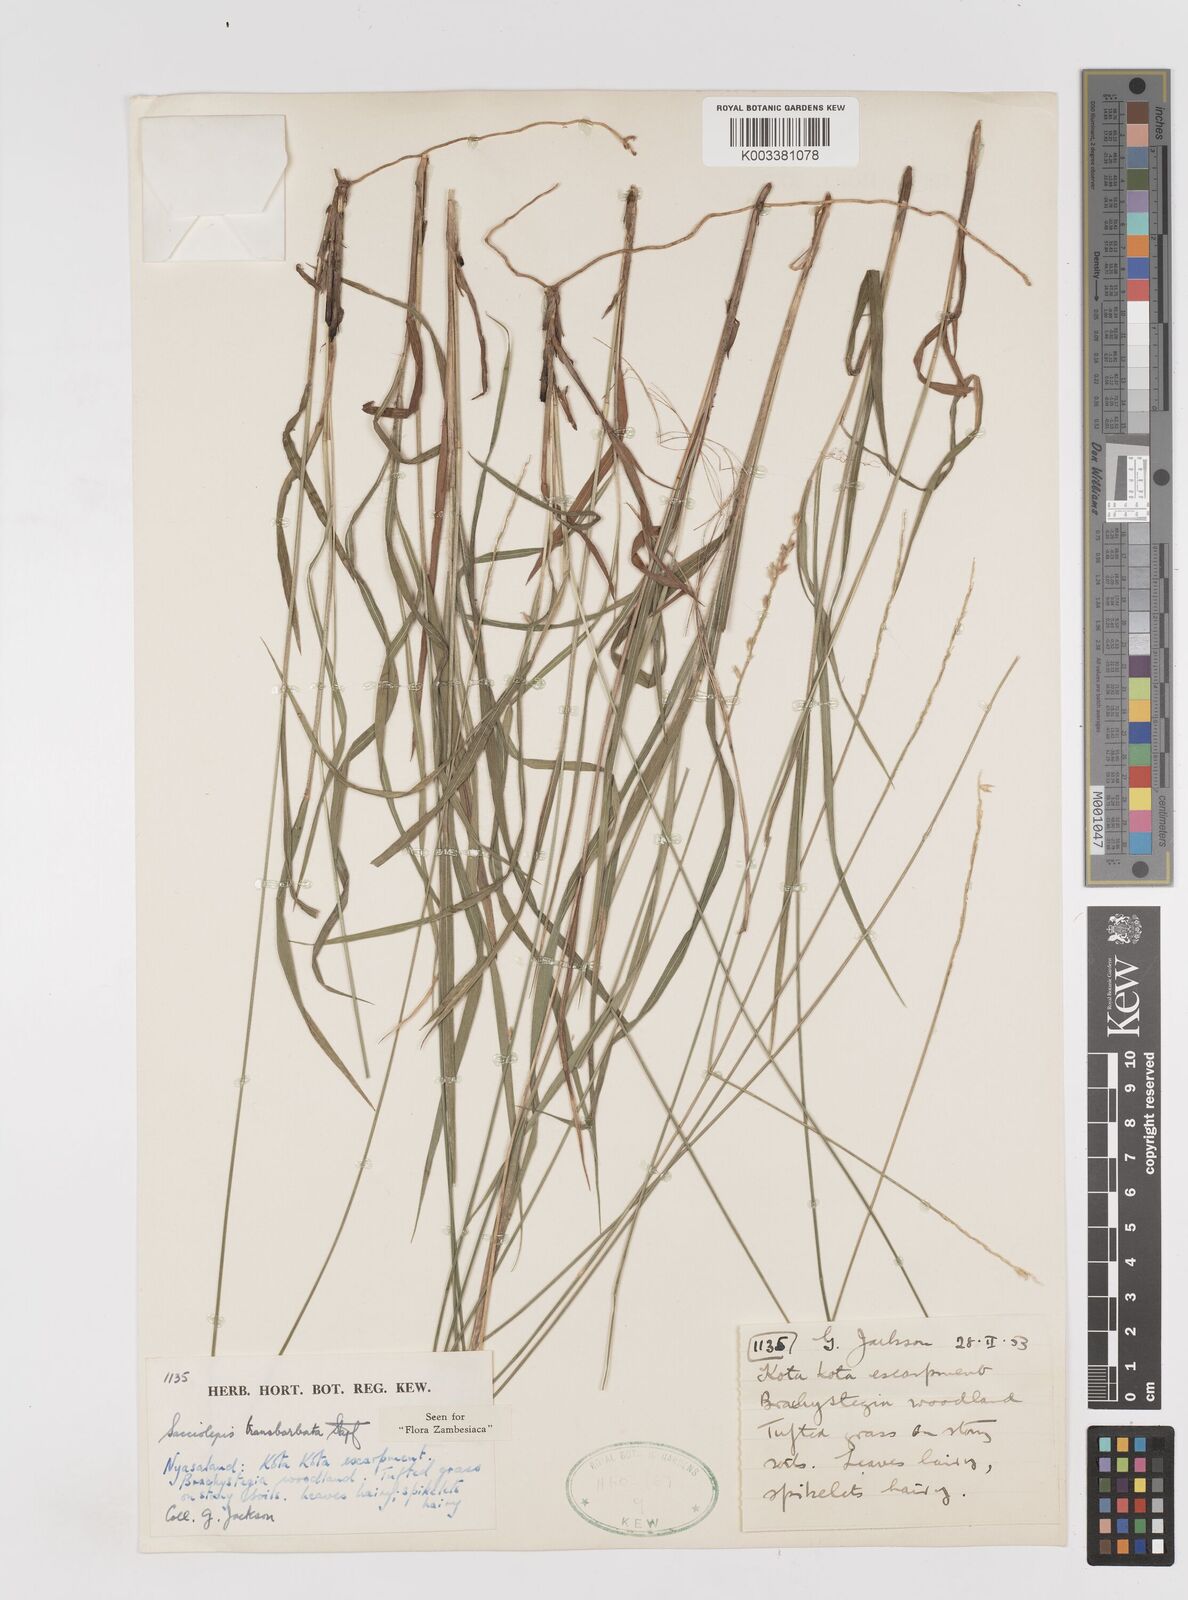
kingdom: Plantae
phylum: Tracheophyta
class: Liliopsida
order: Poales
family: Poaceae
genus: Sacciolepis
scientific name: Sacciolepis transbarbata
